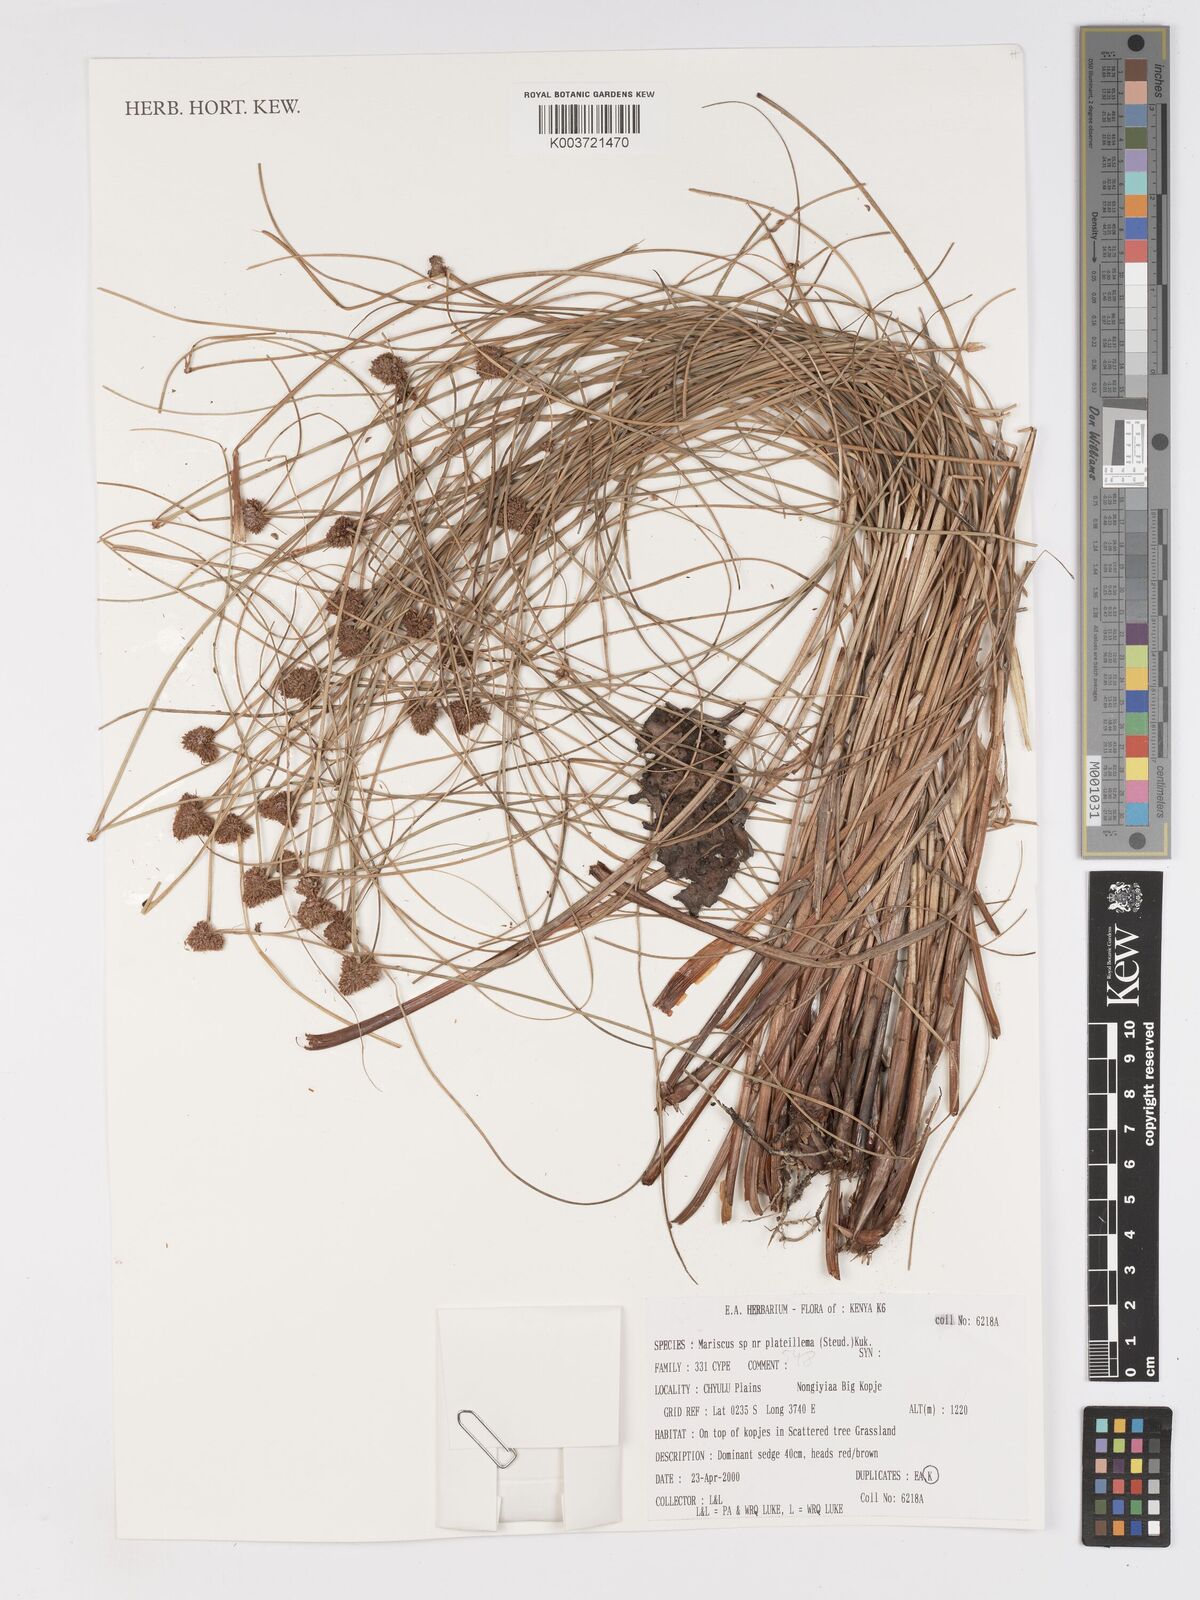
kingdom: Plantae
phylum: Tracheophyta
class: Liliopsida
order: Poales
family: Cyperaceae
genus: Cyperus
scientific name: Cyperus plateilema
